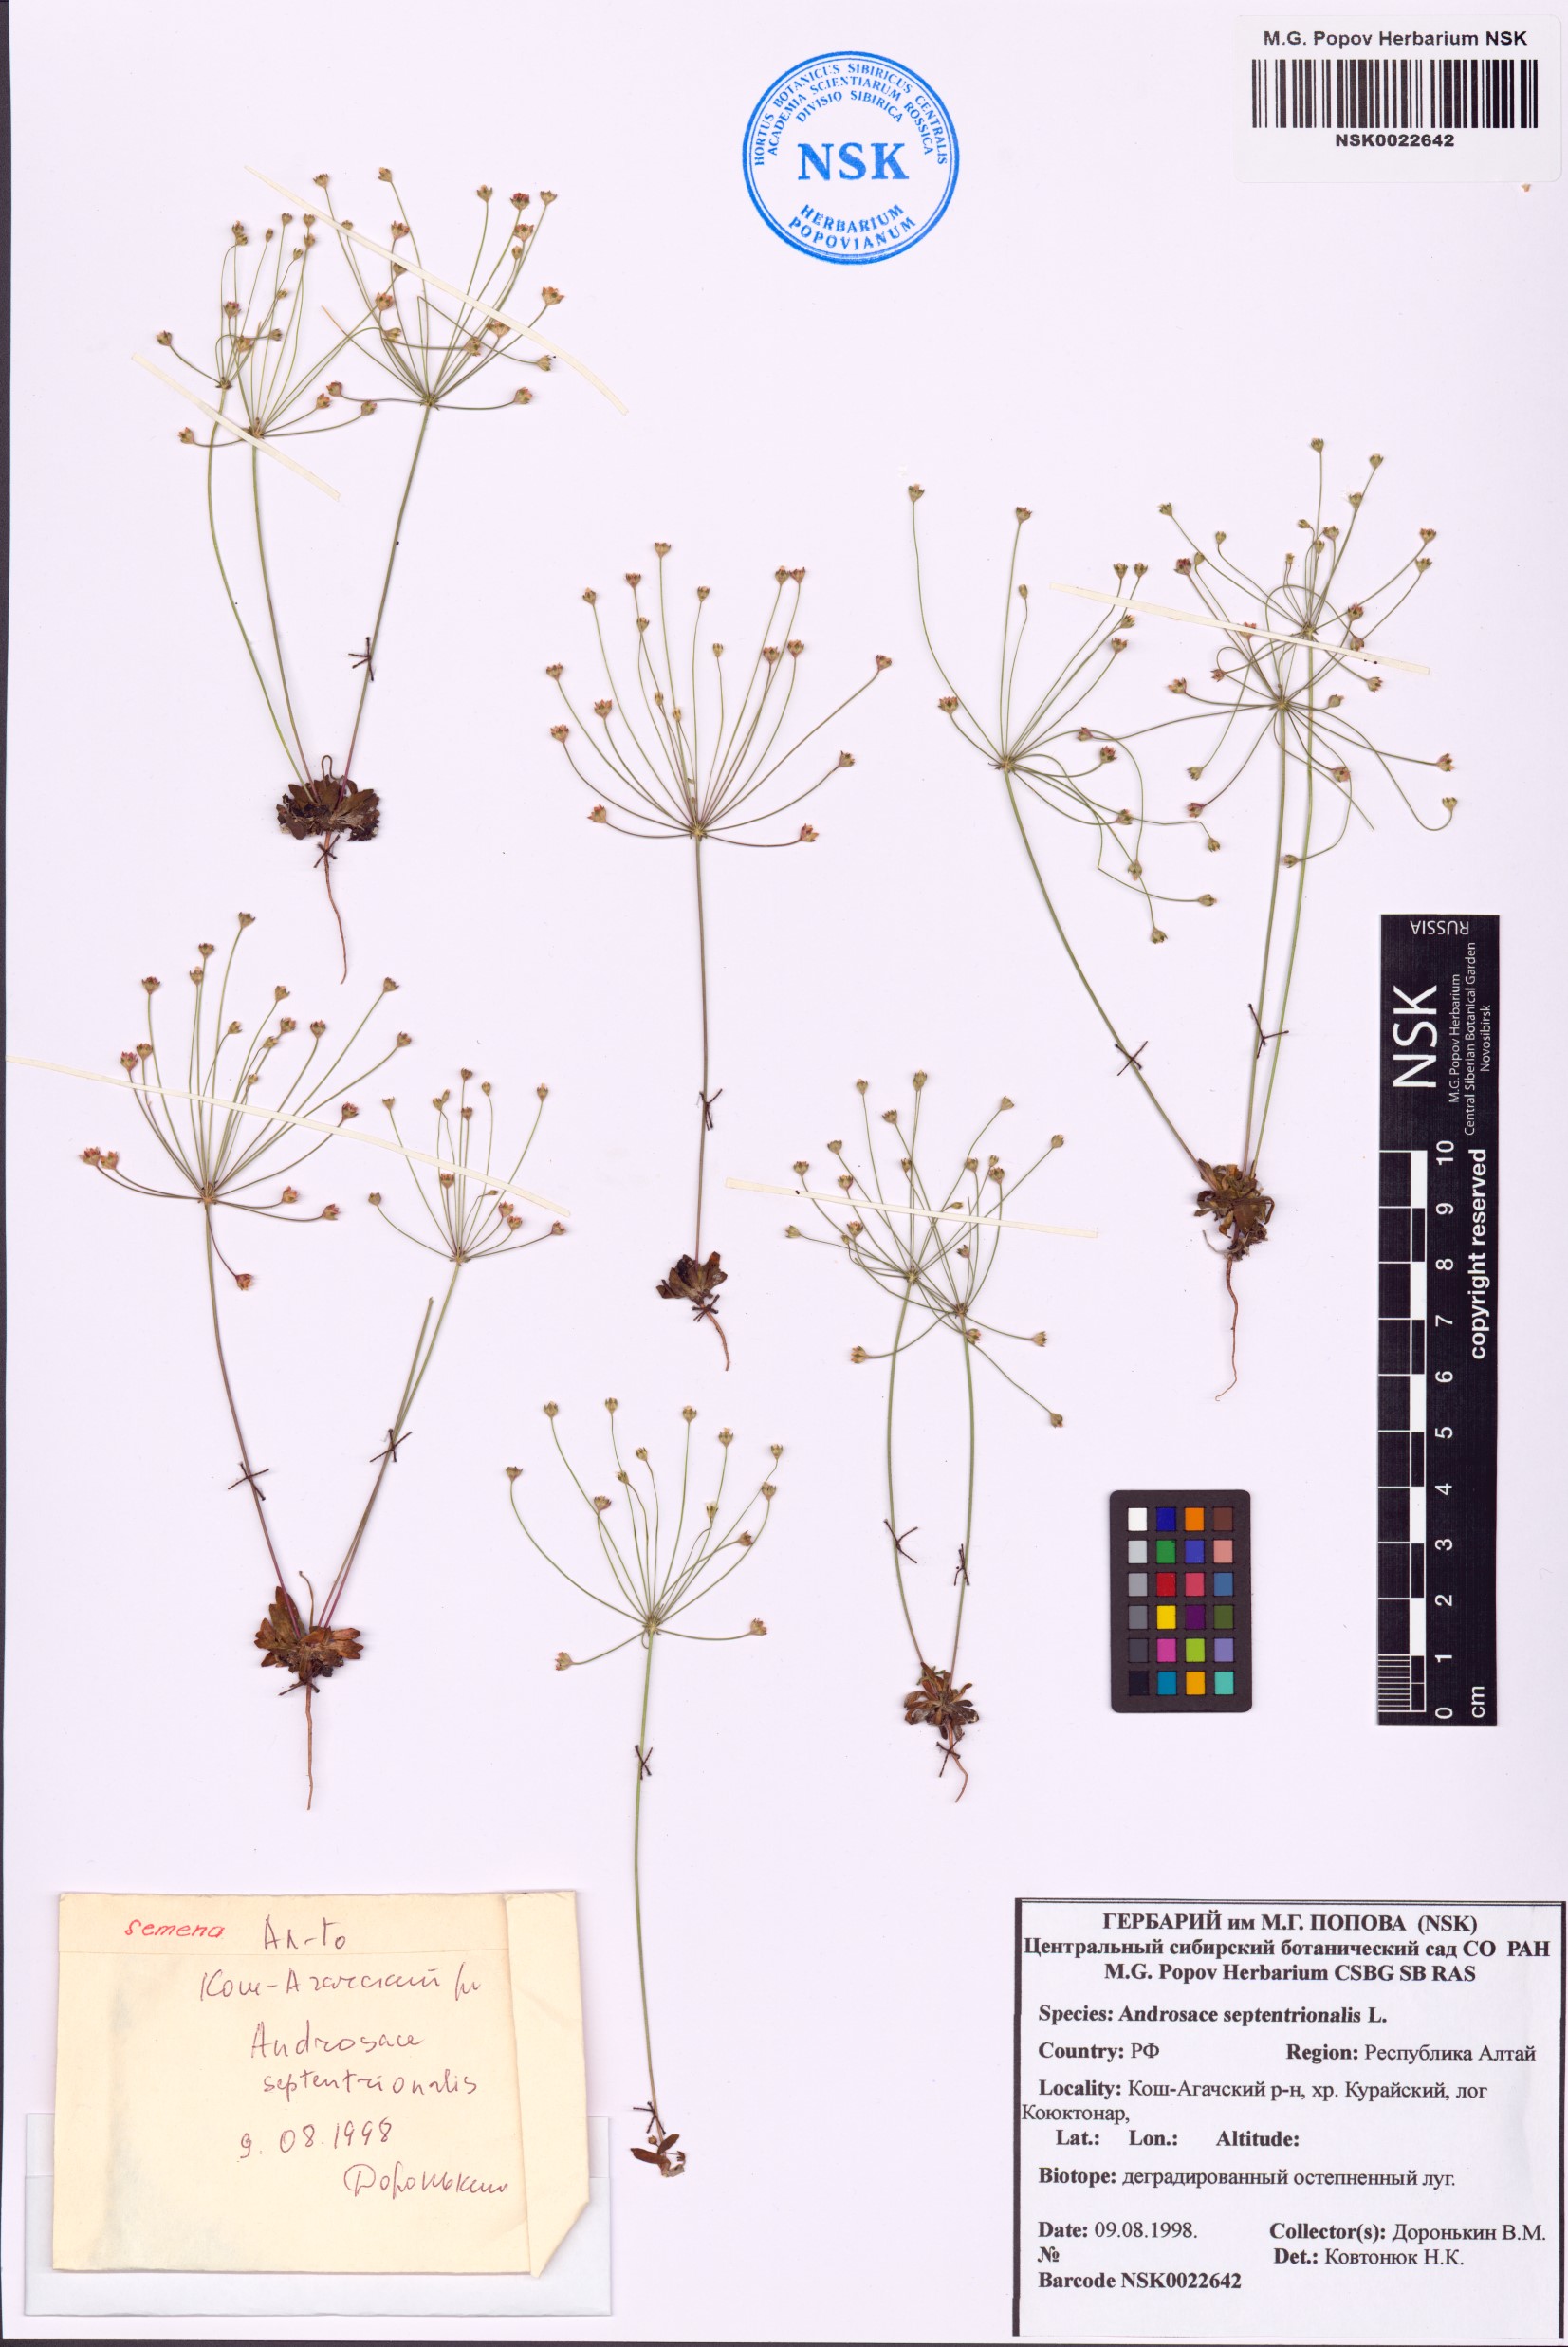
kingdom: Plantae
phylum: Tracheophyta
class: Magnoliopsida
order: Ericales
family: Primulaceae
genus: Androsace
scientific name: Androsace septentrionalis
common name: Hairy northern fairy-candelabra
